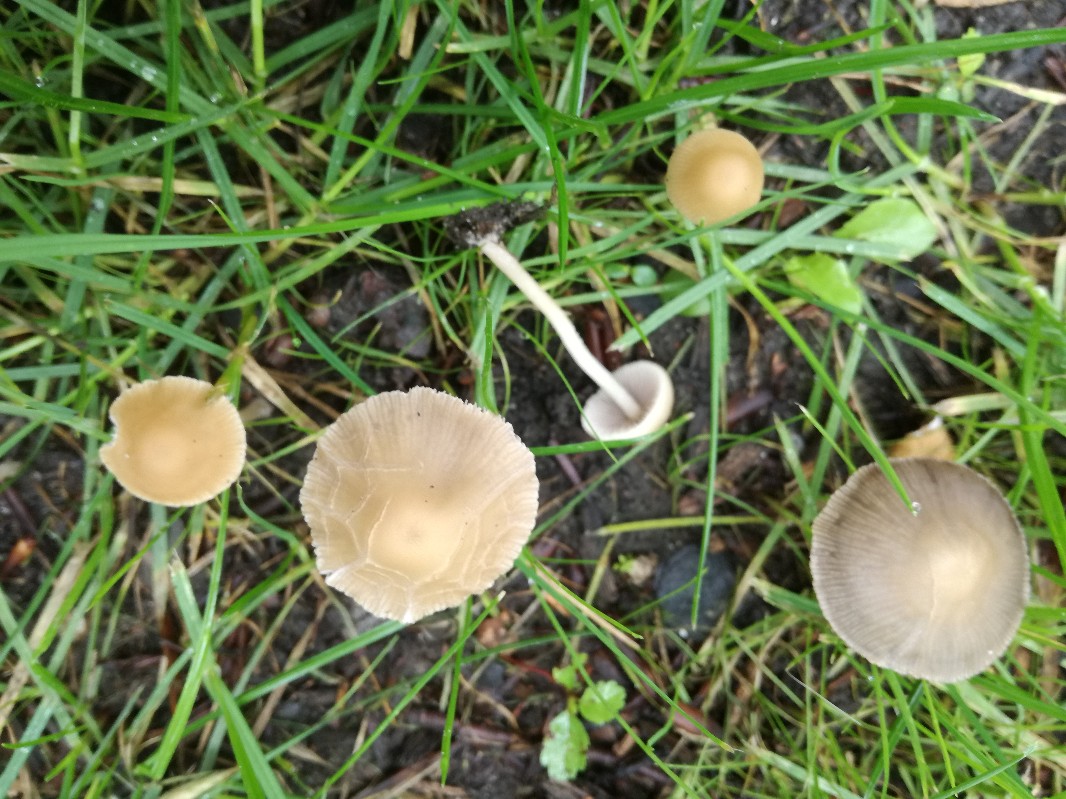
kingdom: Fungi
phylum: Basidiomycota
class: Agaricomycetes
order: Agaricales
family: Psathyrellaceae
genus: Psathyrella
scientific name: Psathyrella pseudogracilis
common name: slank mørkhat
